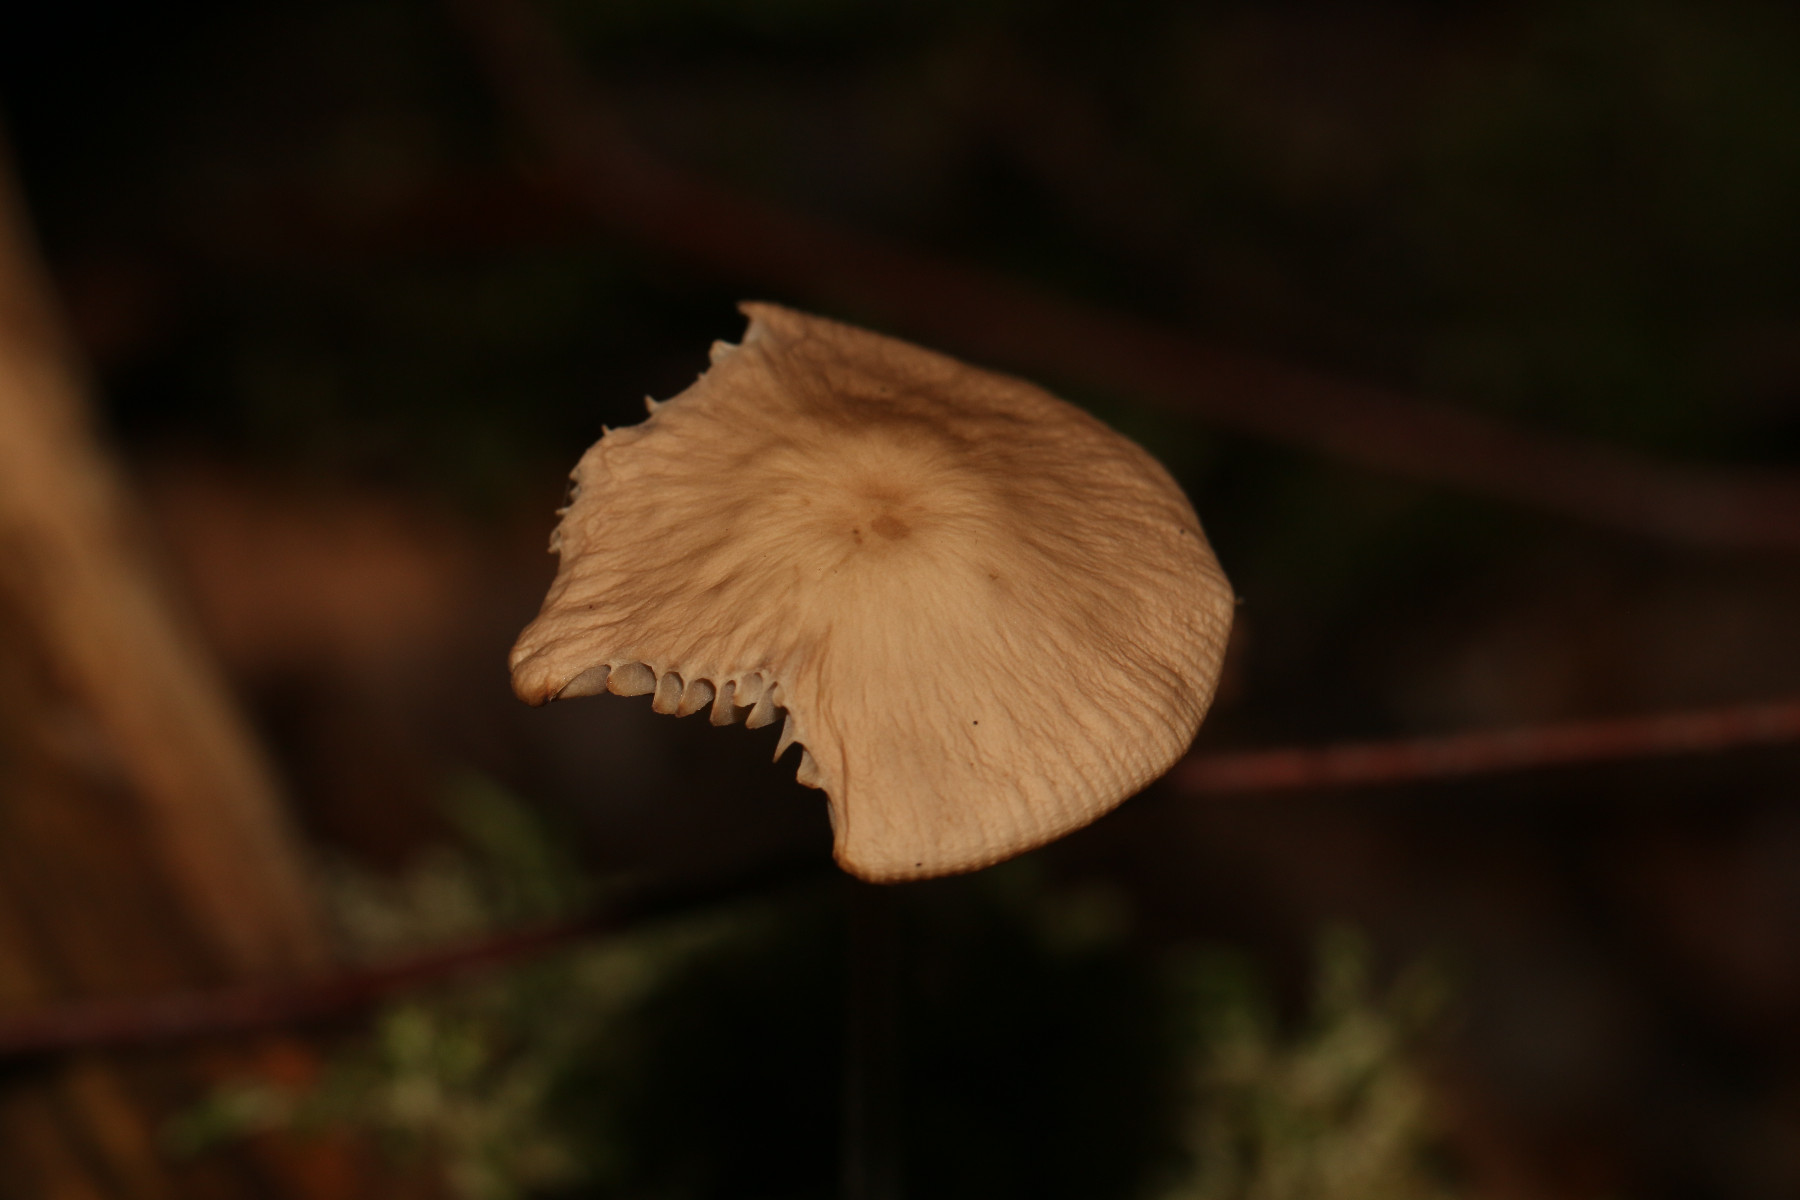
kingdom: Fungi
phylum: Basidiomycota
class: Agaricomycetes
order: Agaricales
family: Omphalotaceae
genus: Mycetinis
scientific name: Mycetinis alliaceus
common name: stor løghat
